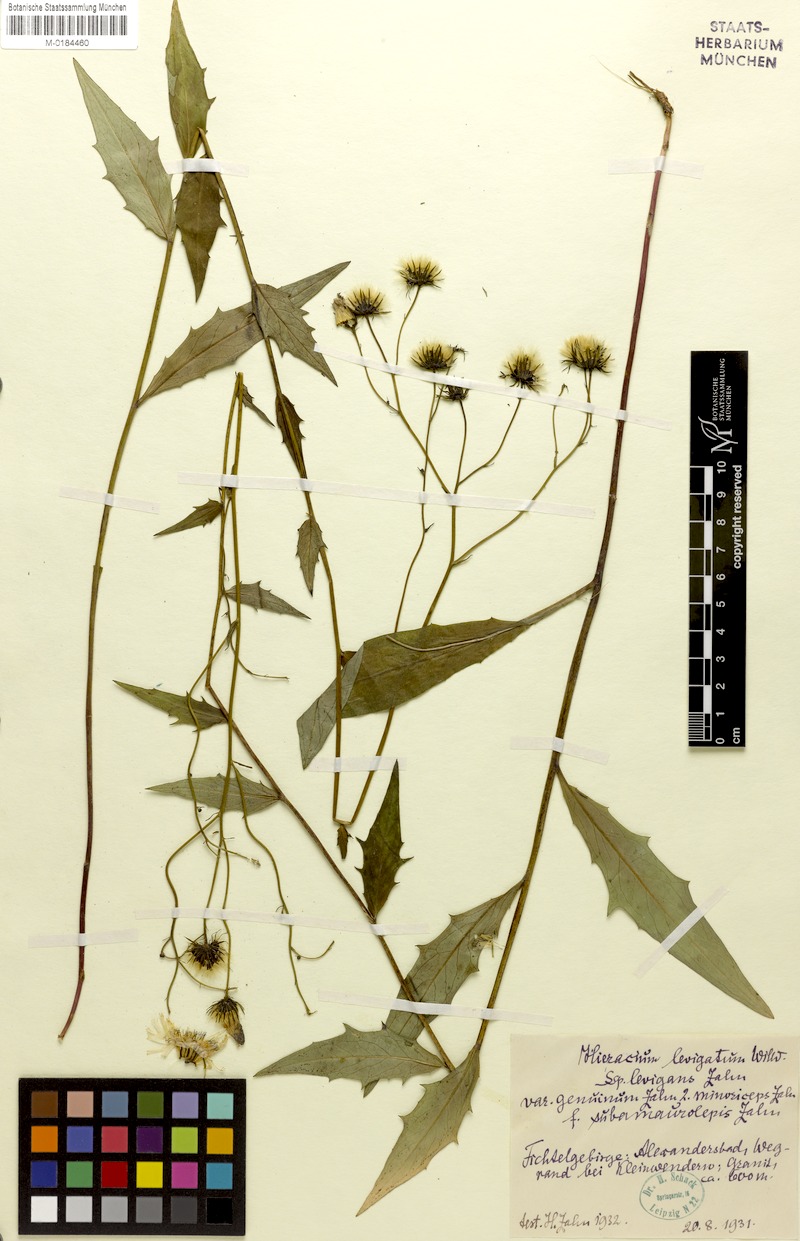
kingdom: Plantae
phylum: Tracheophyta
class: Magnoliopsida
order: Asterales
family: Asteraceae
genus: Hieracium
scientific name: Hieracium laevigatum
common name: Smooth hawkweed
